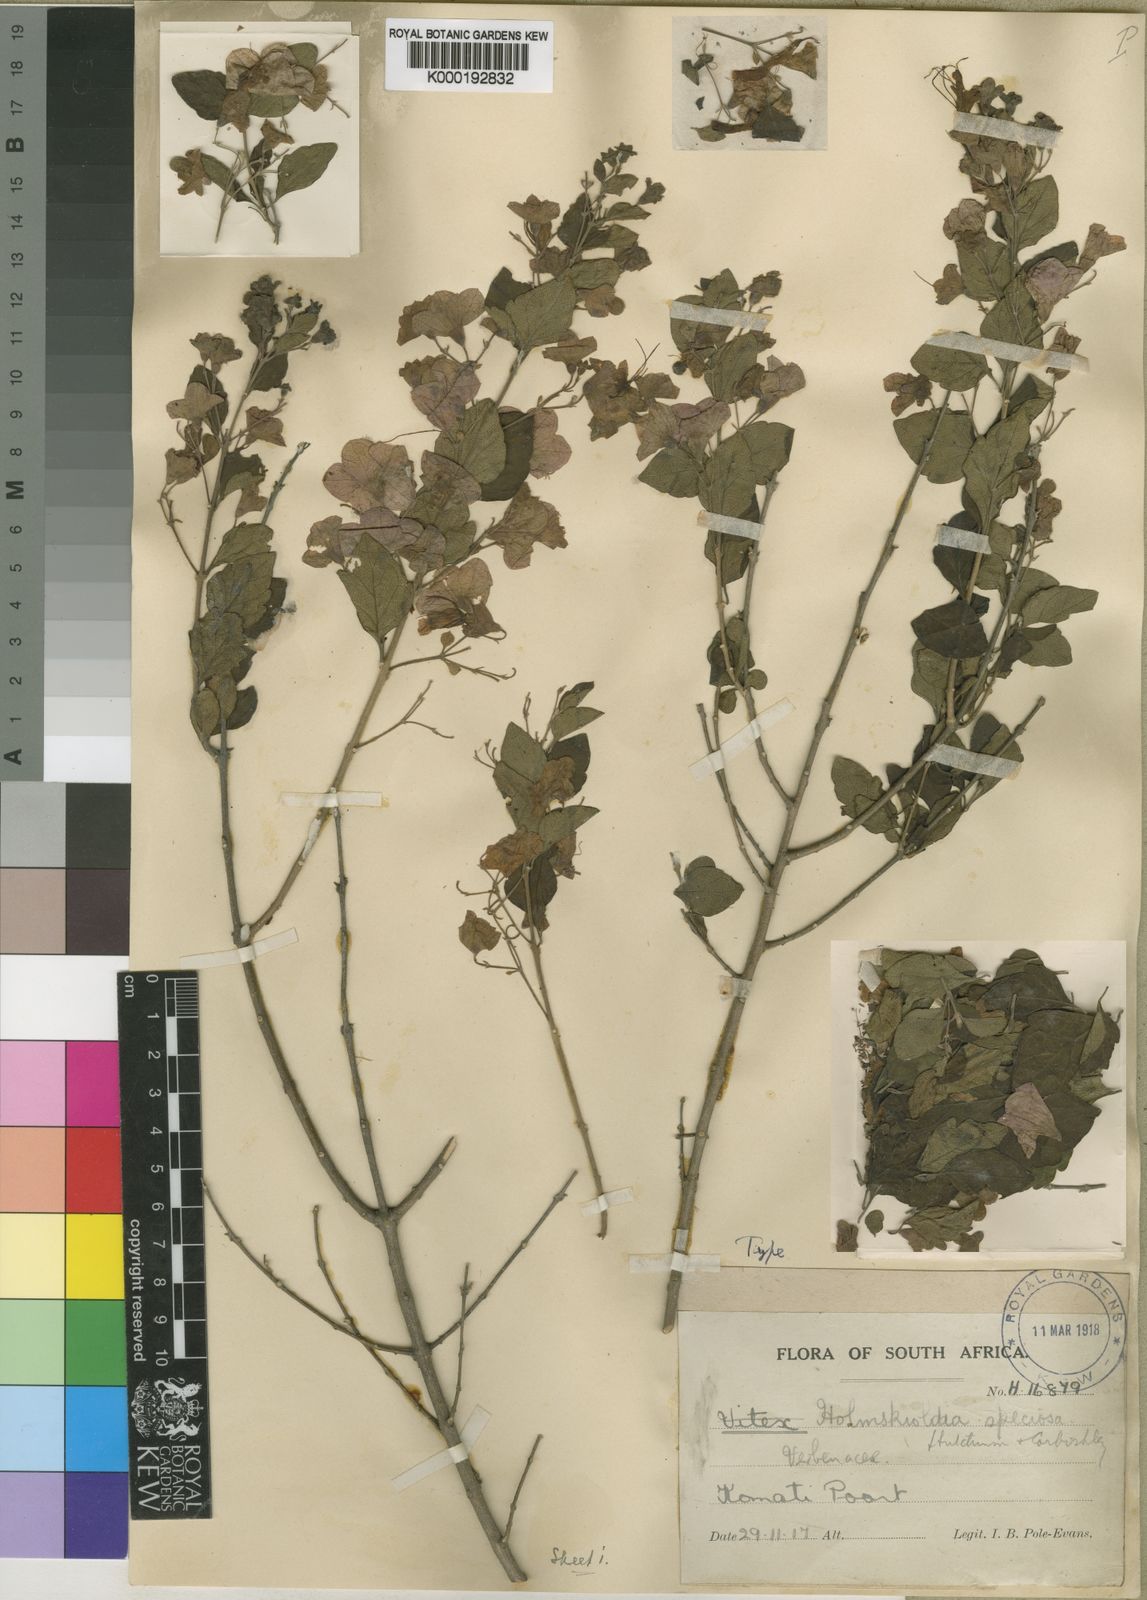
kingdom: Plantae
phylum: Tracheophyta
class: Magnoliopsida
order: Lamiales
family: Lamiaceae
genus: Karomia
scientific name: Karomia speciosa
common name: Southern chinese-hats
